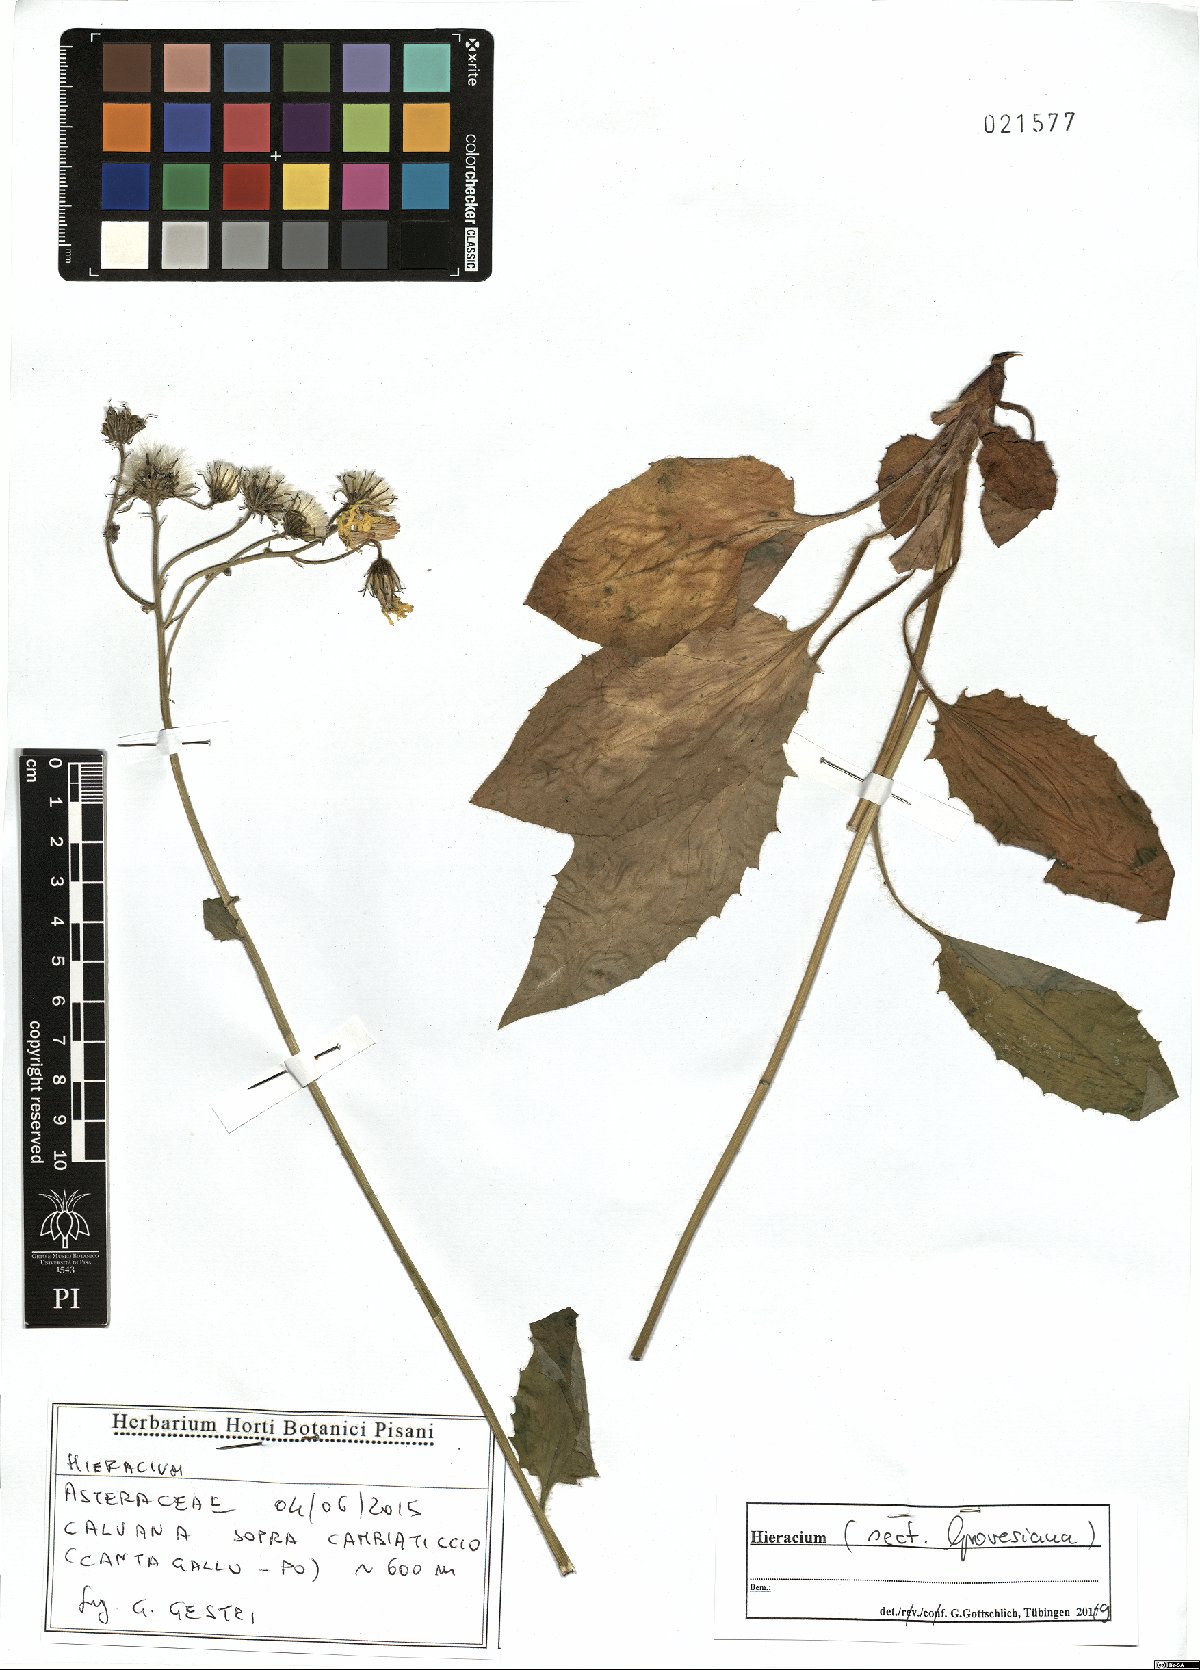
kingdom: Plantae
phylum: Tracheophyta
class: Magnoliopsida
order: Asterales
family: Asteraceae
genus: Hieracium
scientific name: Hieracium grovesianum
